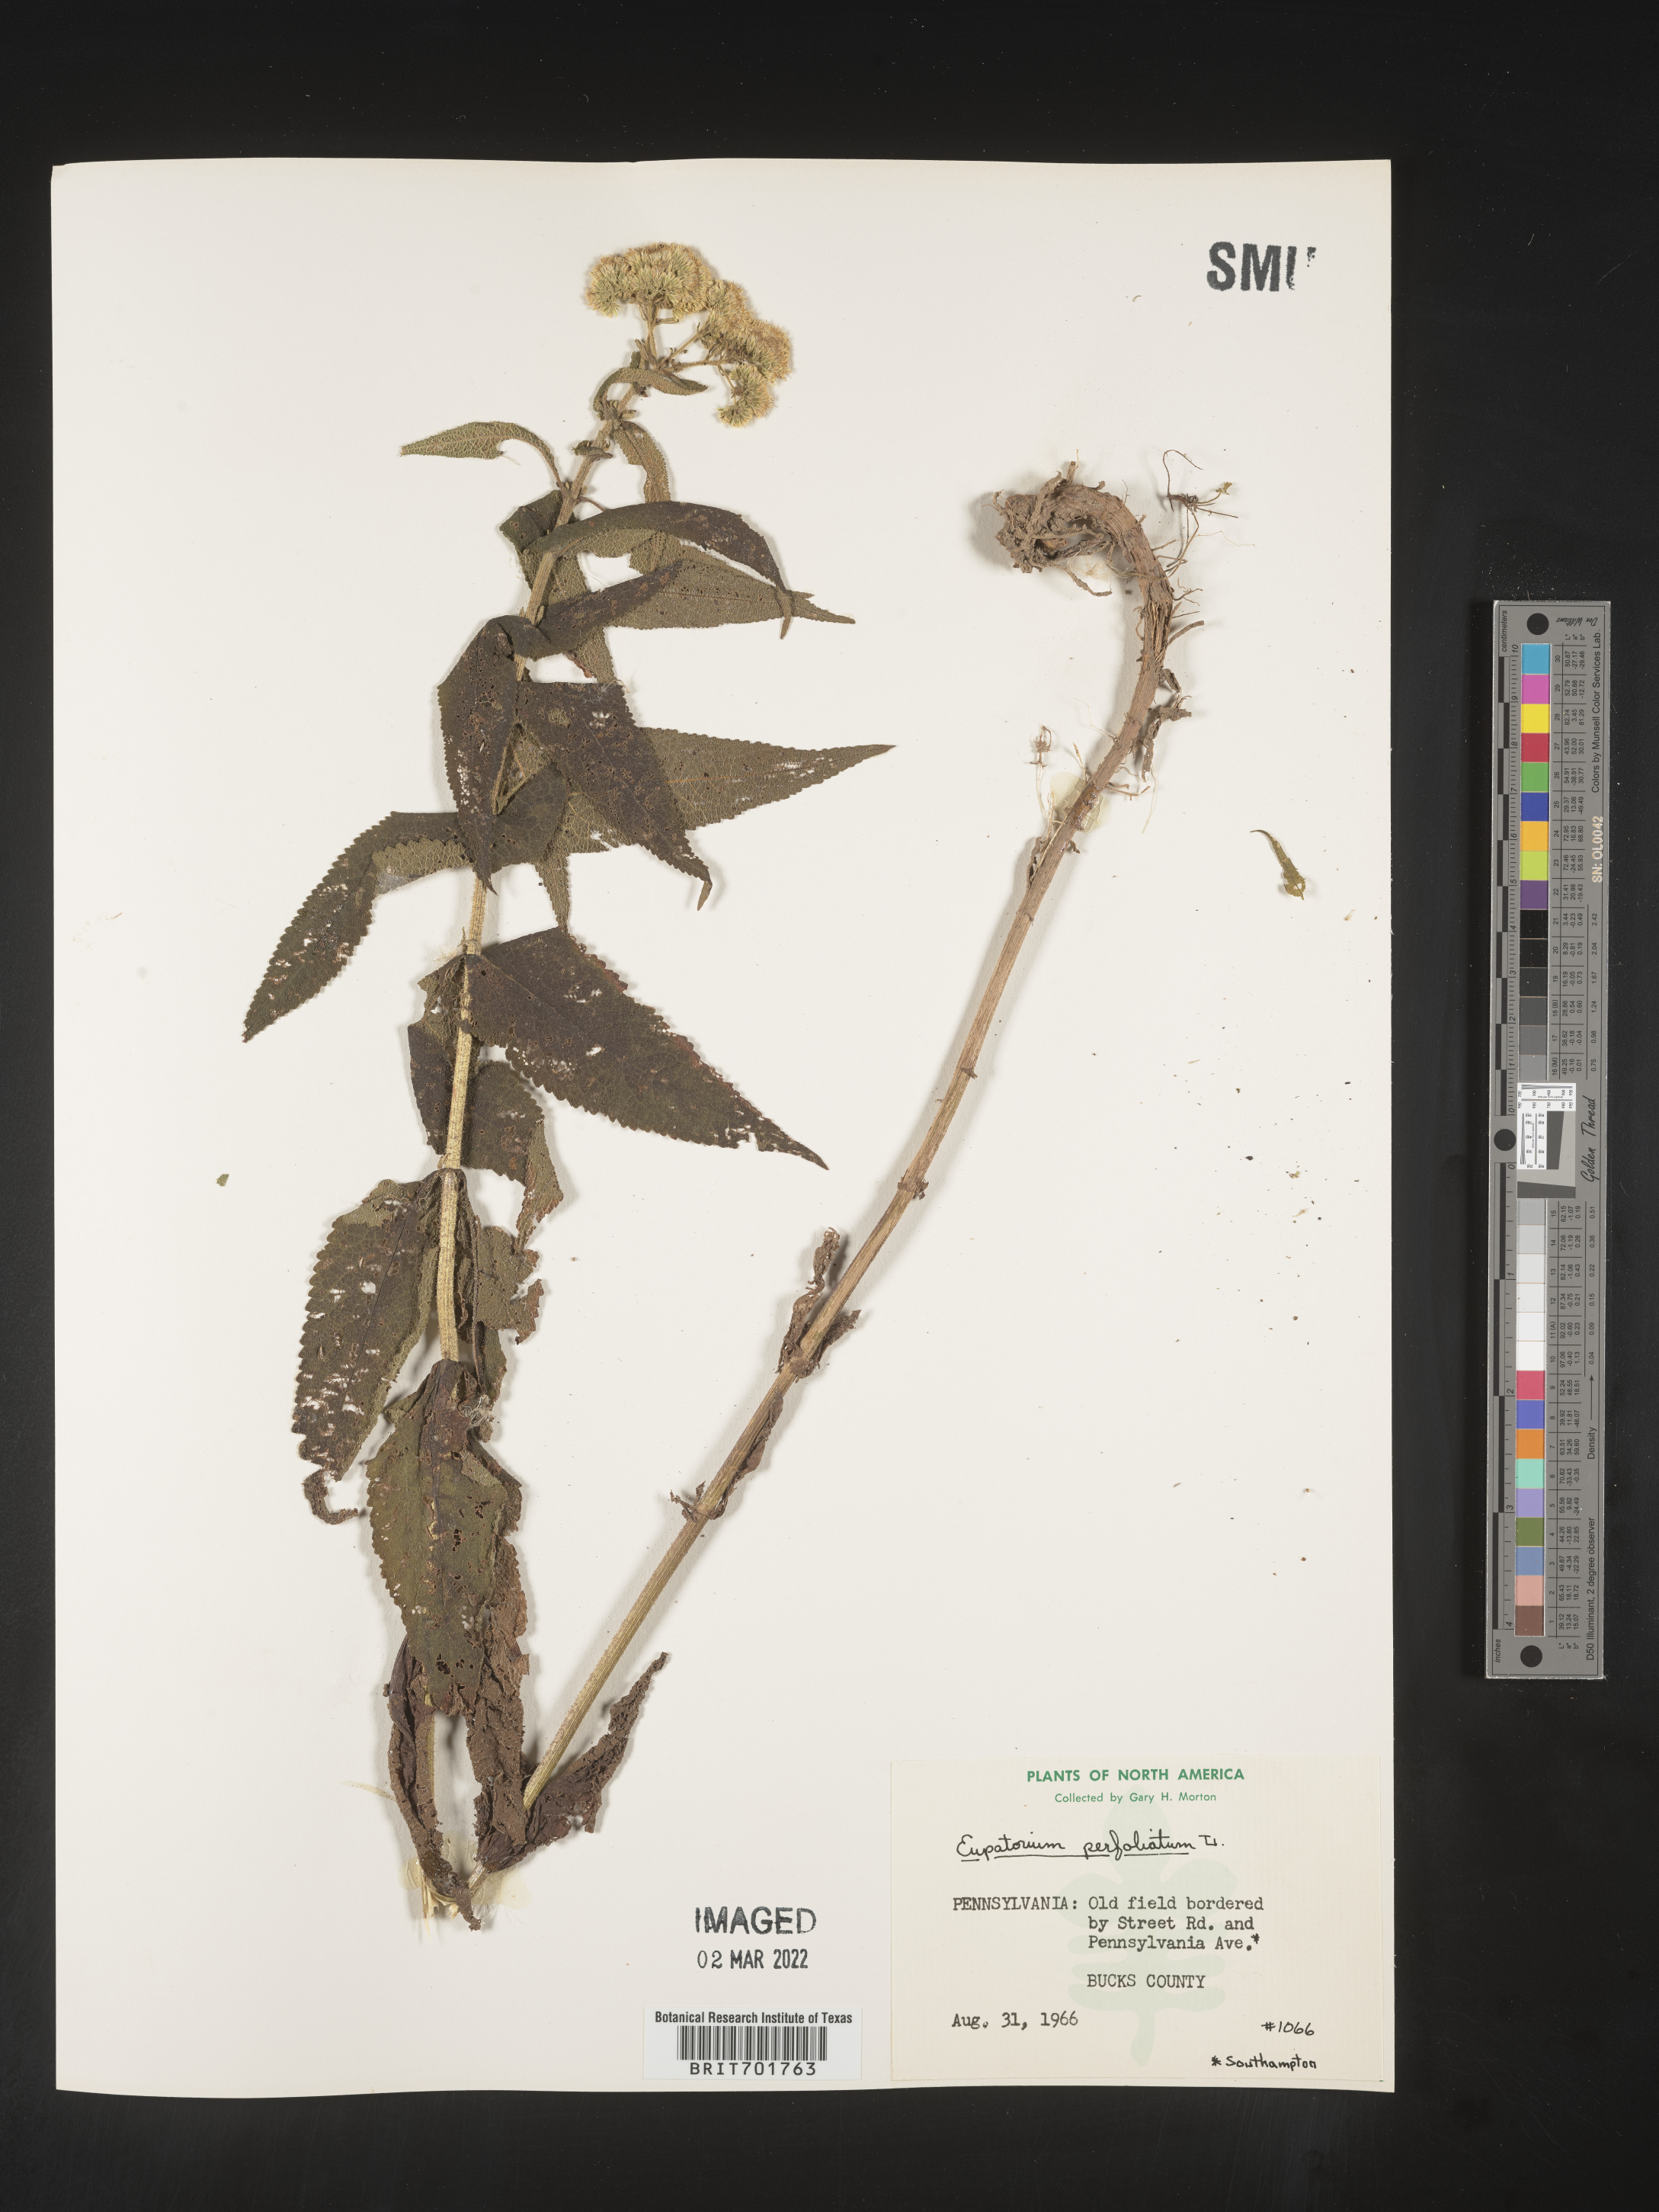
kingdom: Plantae
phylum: Tracheophyta
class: Magnoliopsida
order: Asterales
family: Asteraceae
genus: Eupatorium
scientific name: Eupatorium perfoliatum
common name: Boneset
